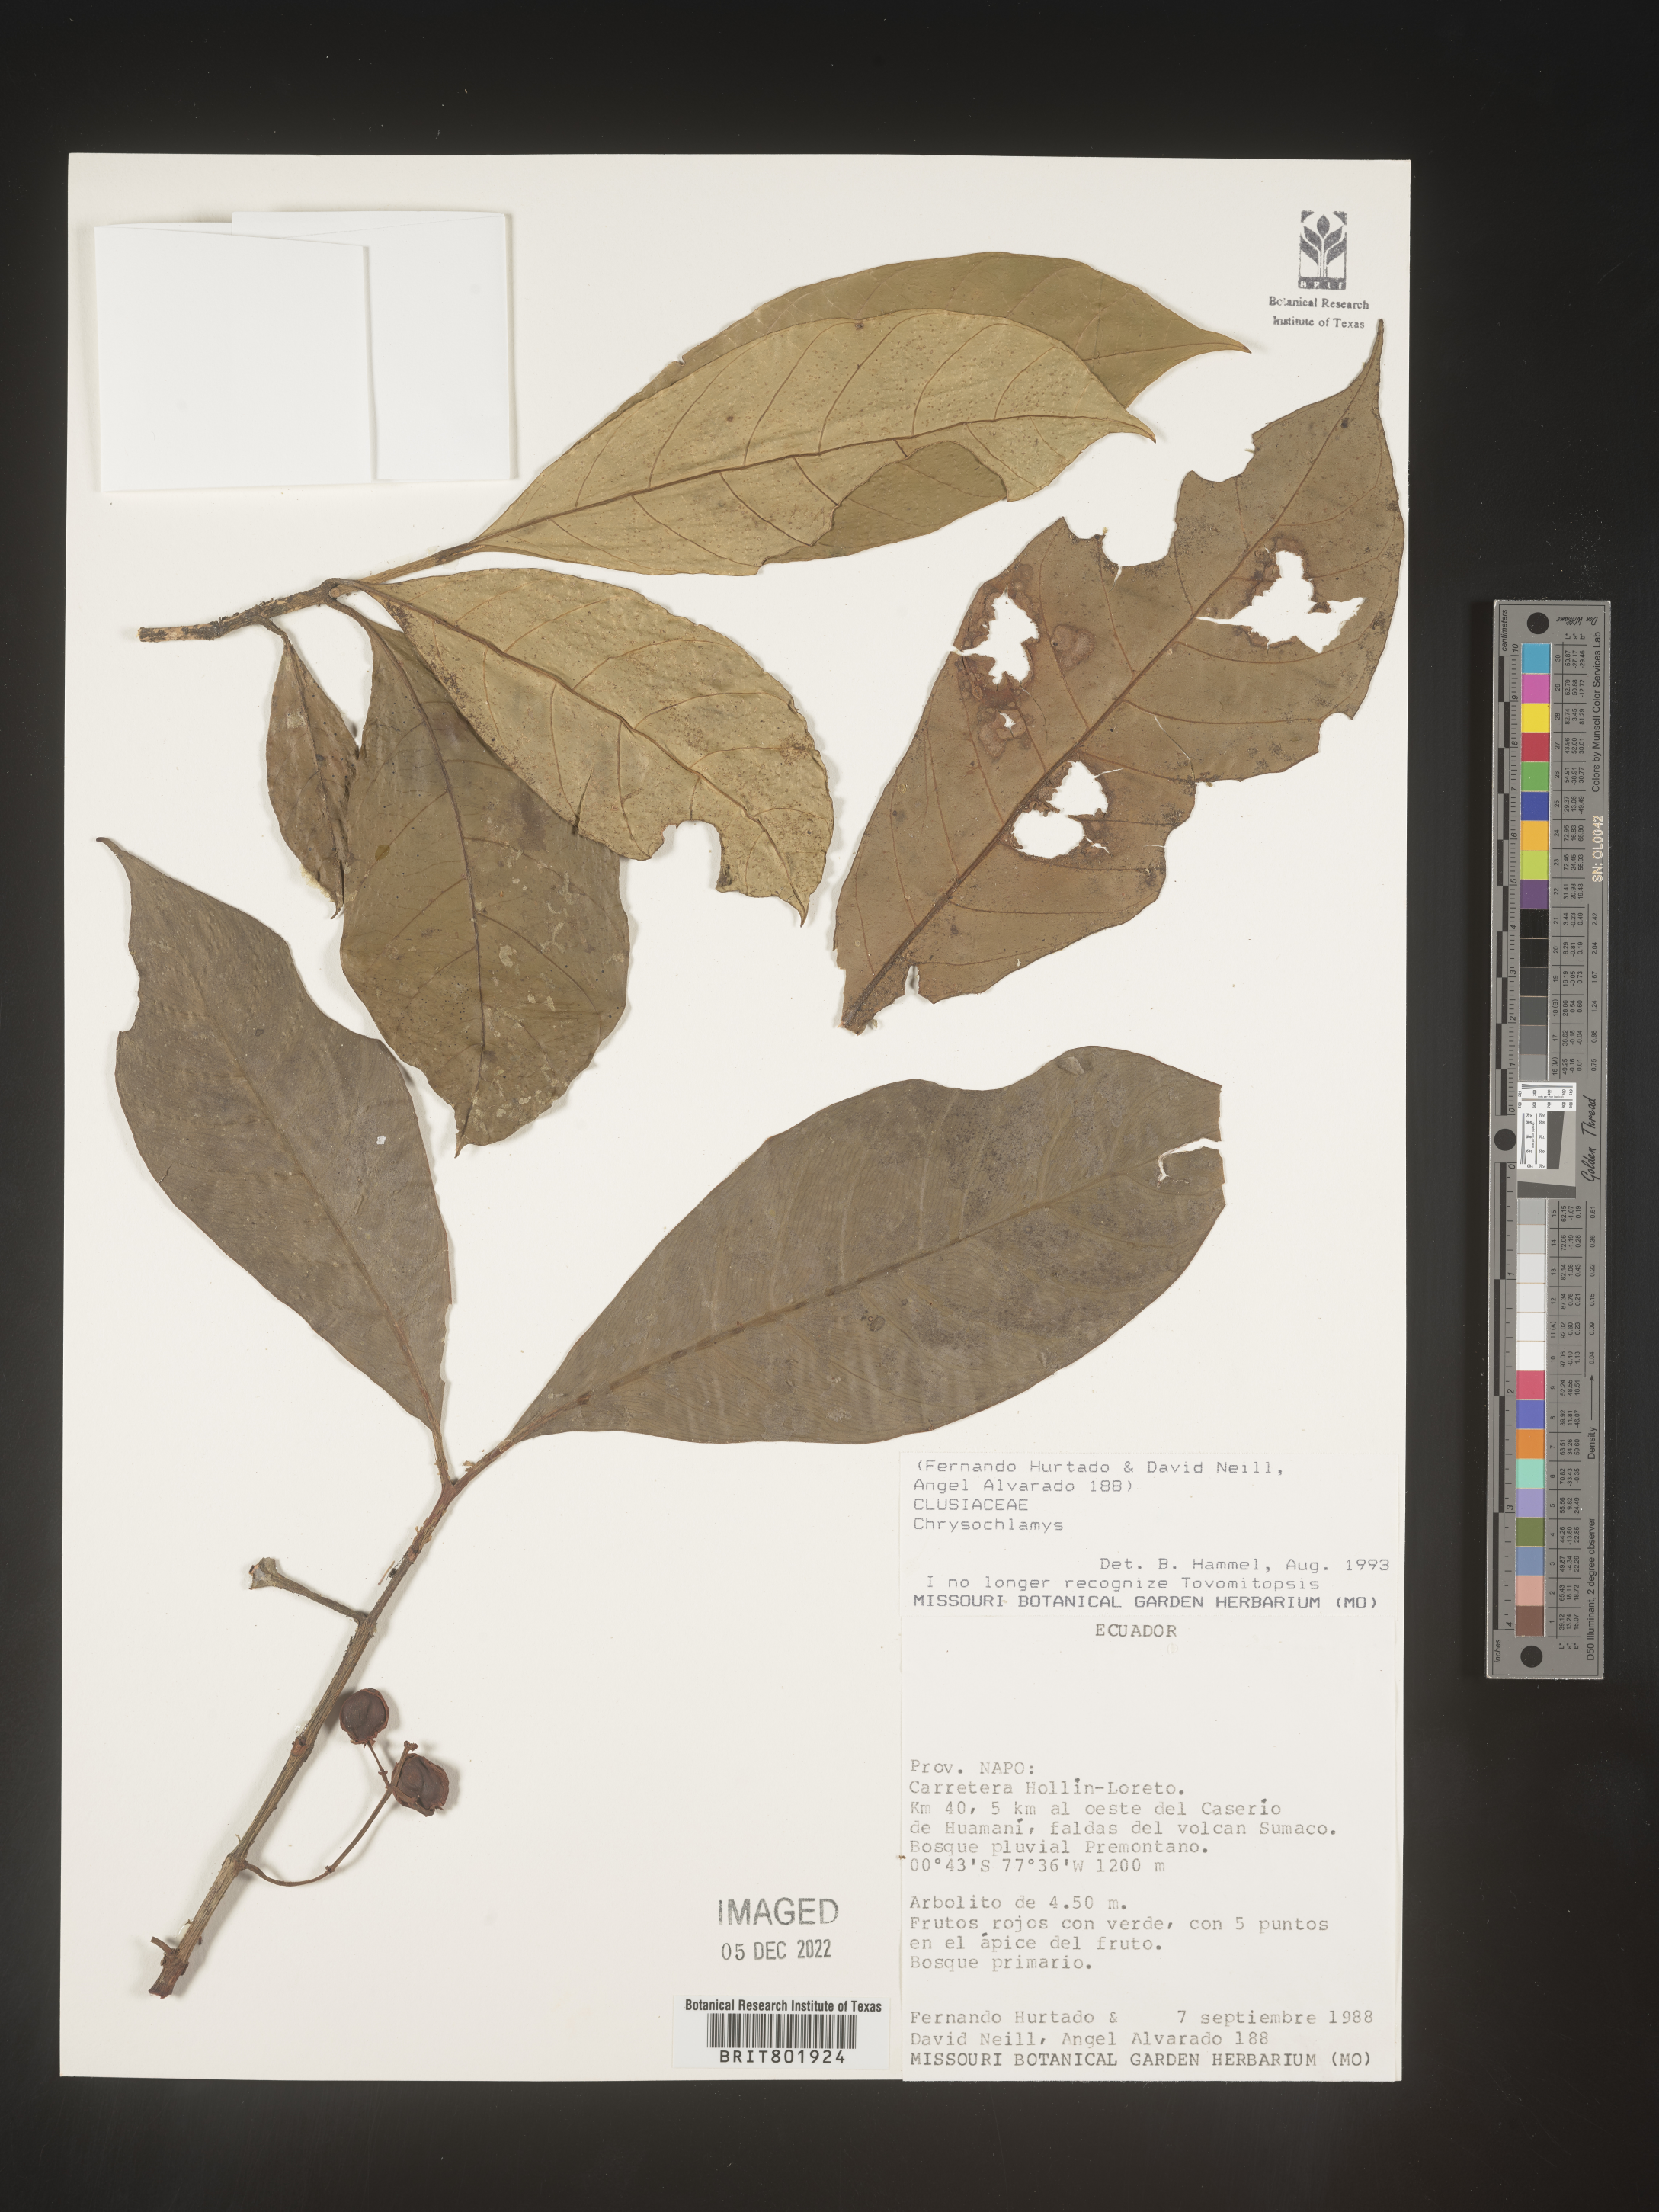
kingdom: Plantae
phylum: Tracheophyta
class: Magnoliopsida
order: Malpighiales
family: Clusiaceae
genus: Chrysochlamys
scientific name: Chrysochlamys
